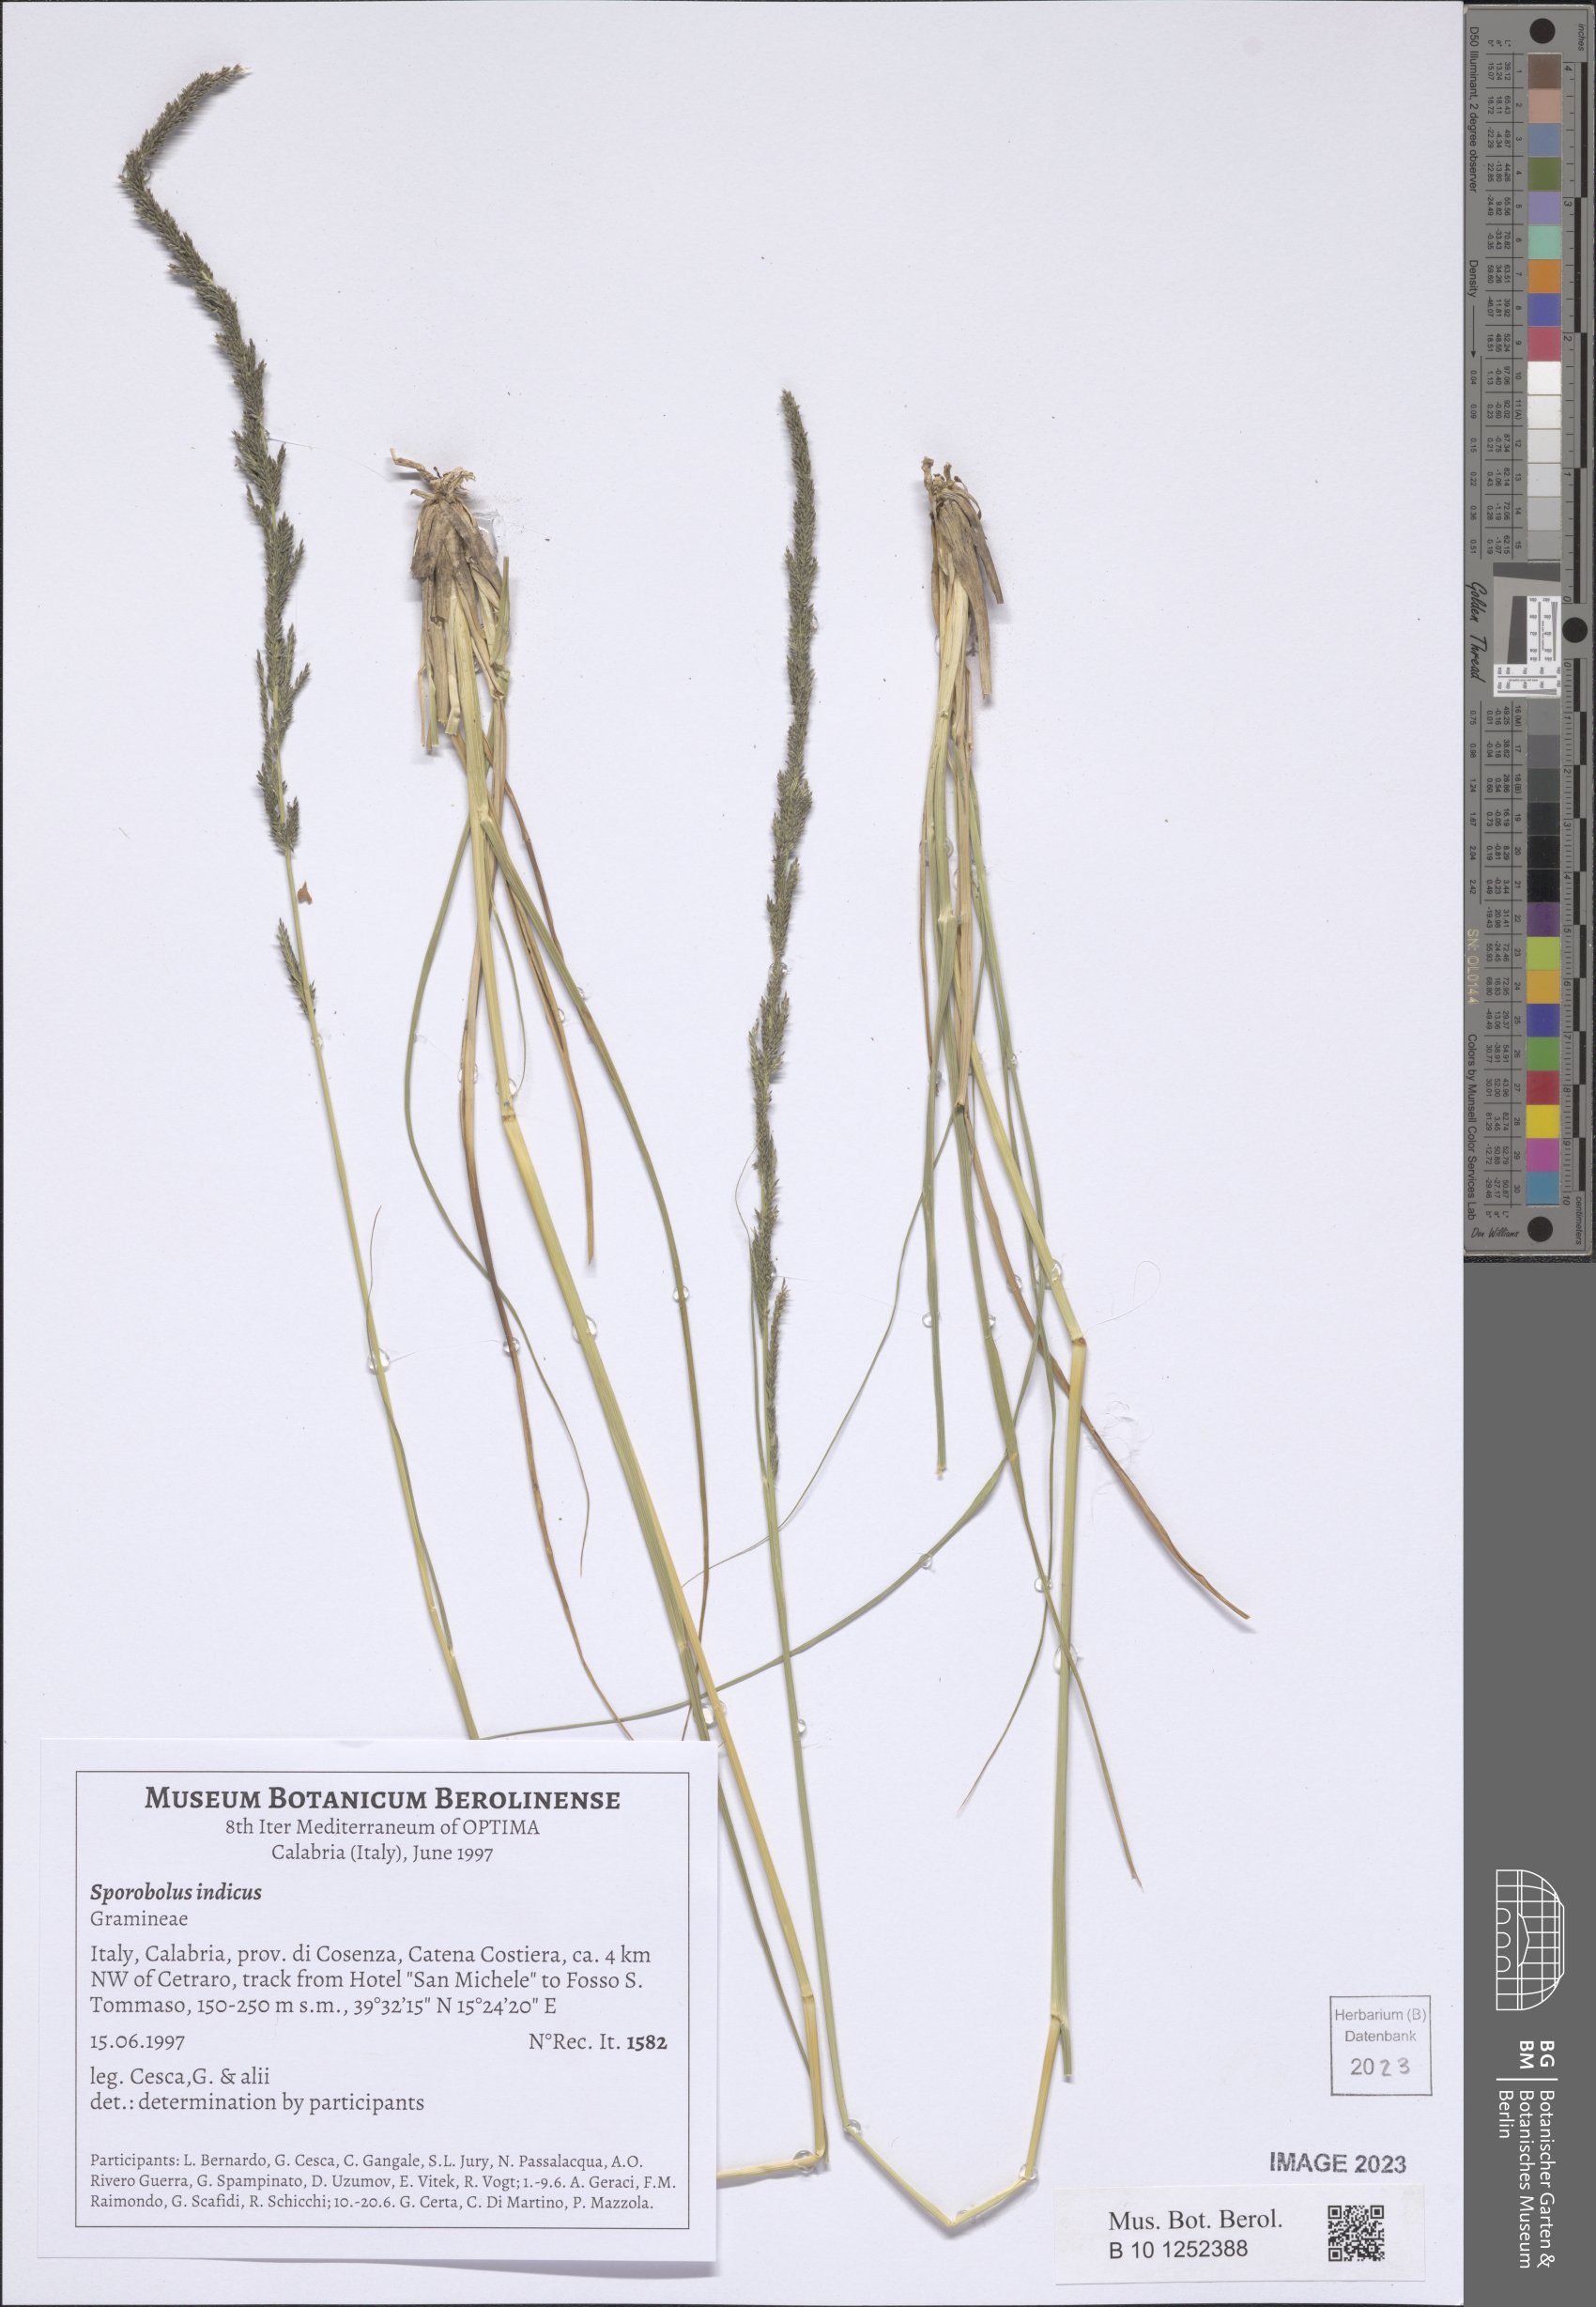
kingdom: Plantae
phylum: Tracheophyta
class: Liliopsida
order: Poales
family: Poaceae
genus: Sporobolus
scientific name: Sporobolus indicus
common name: Smut grass
